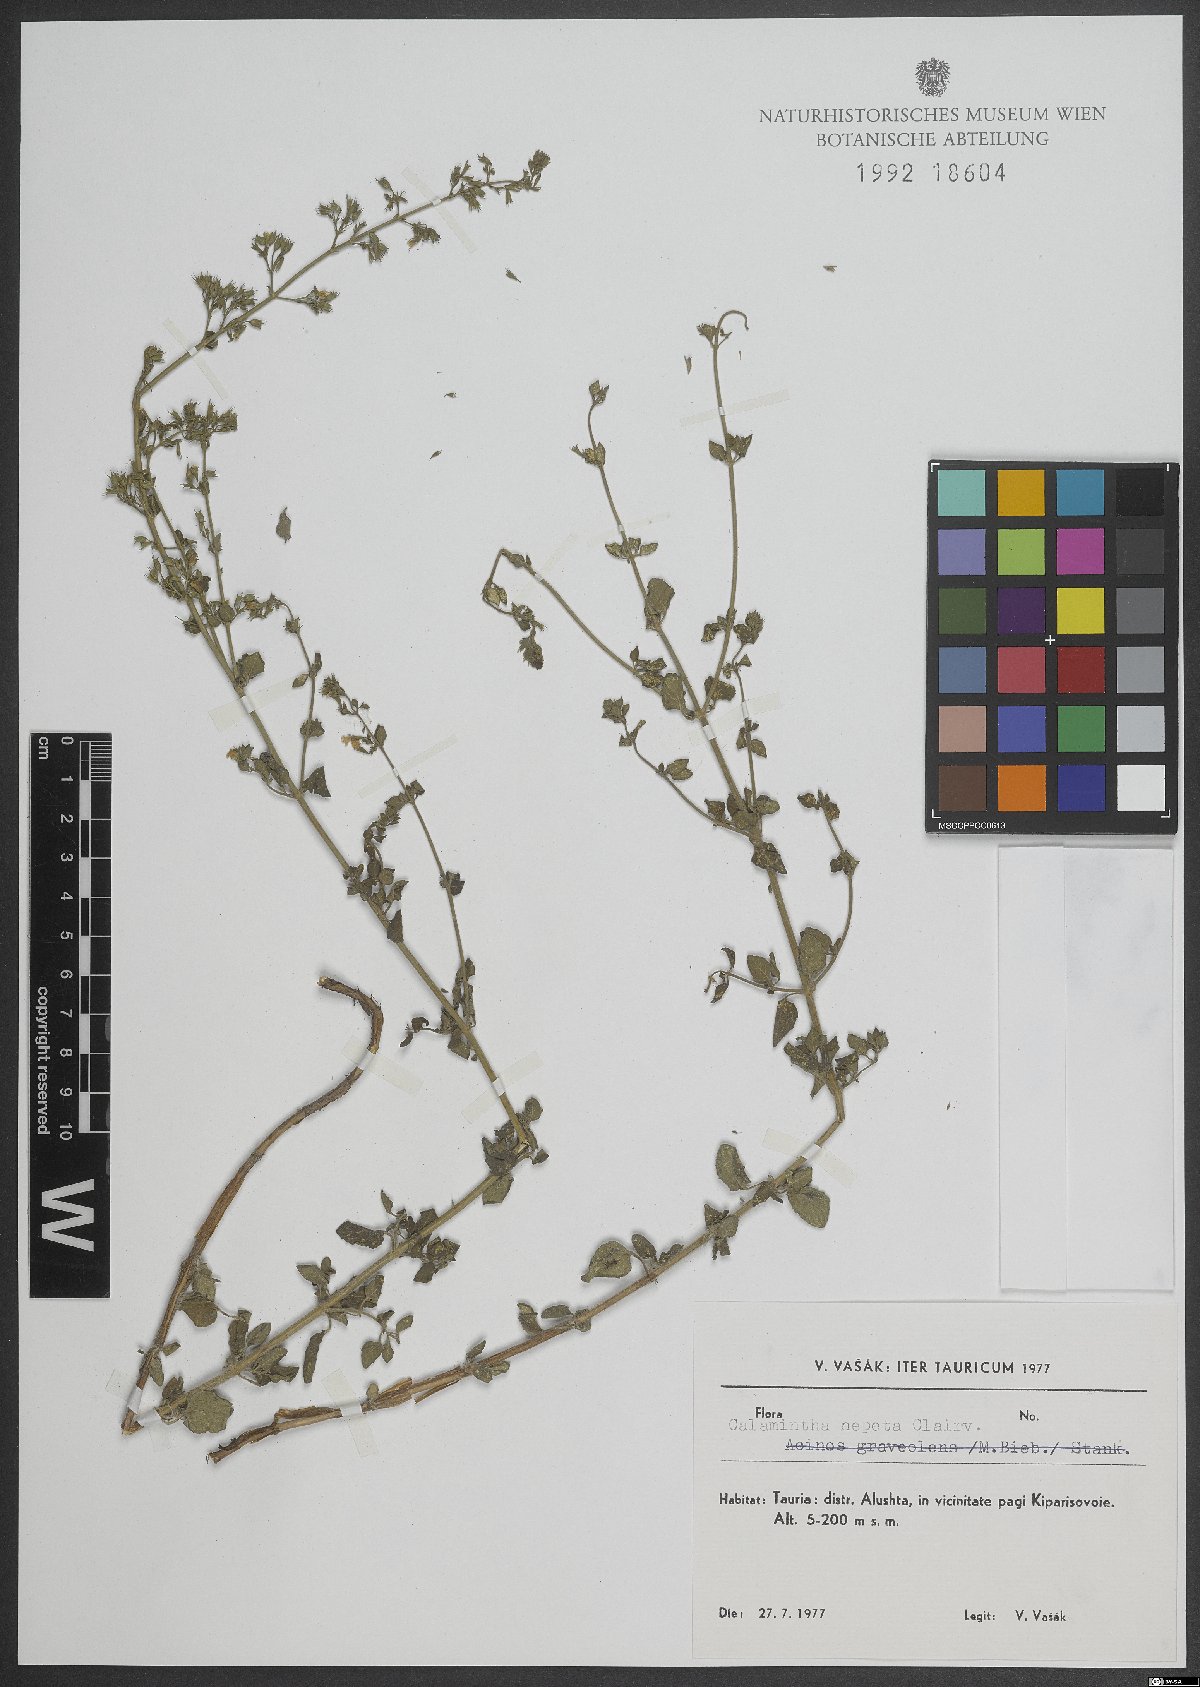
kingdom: Plantae
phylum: Tracheophyta
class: Magnoliopsida
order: Lamiales
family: Lamiaceae
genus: Clinopodium
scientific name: Clinopodium nepeta
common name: Lesser calamint
